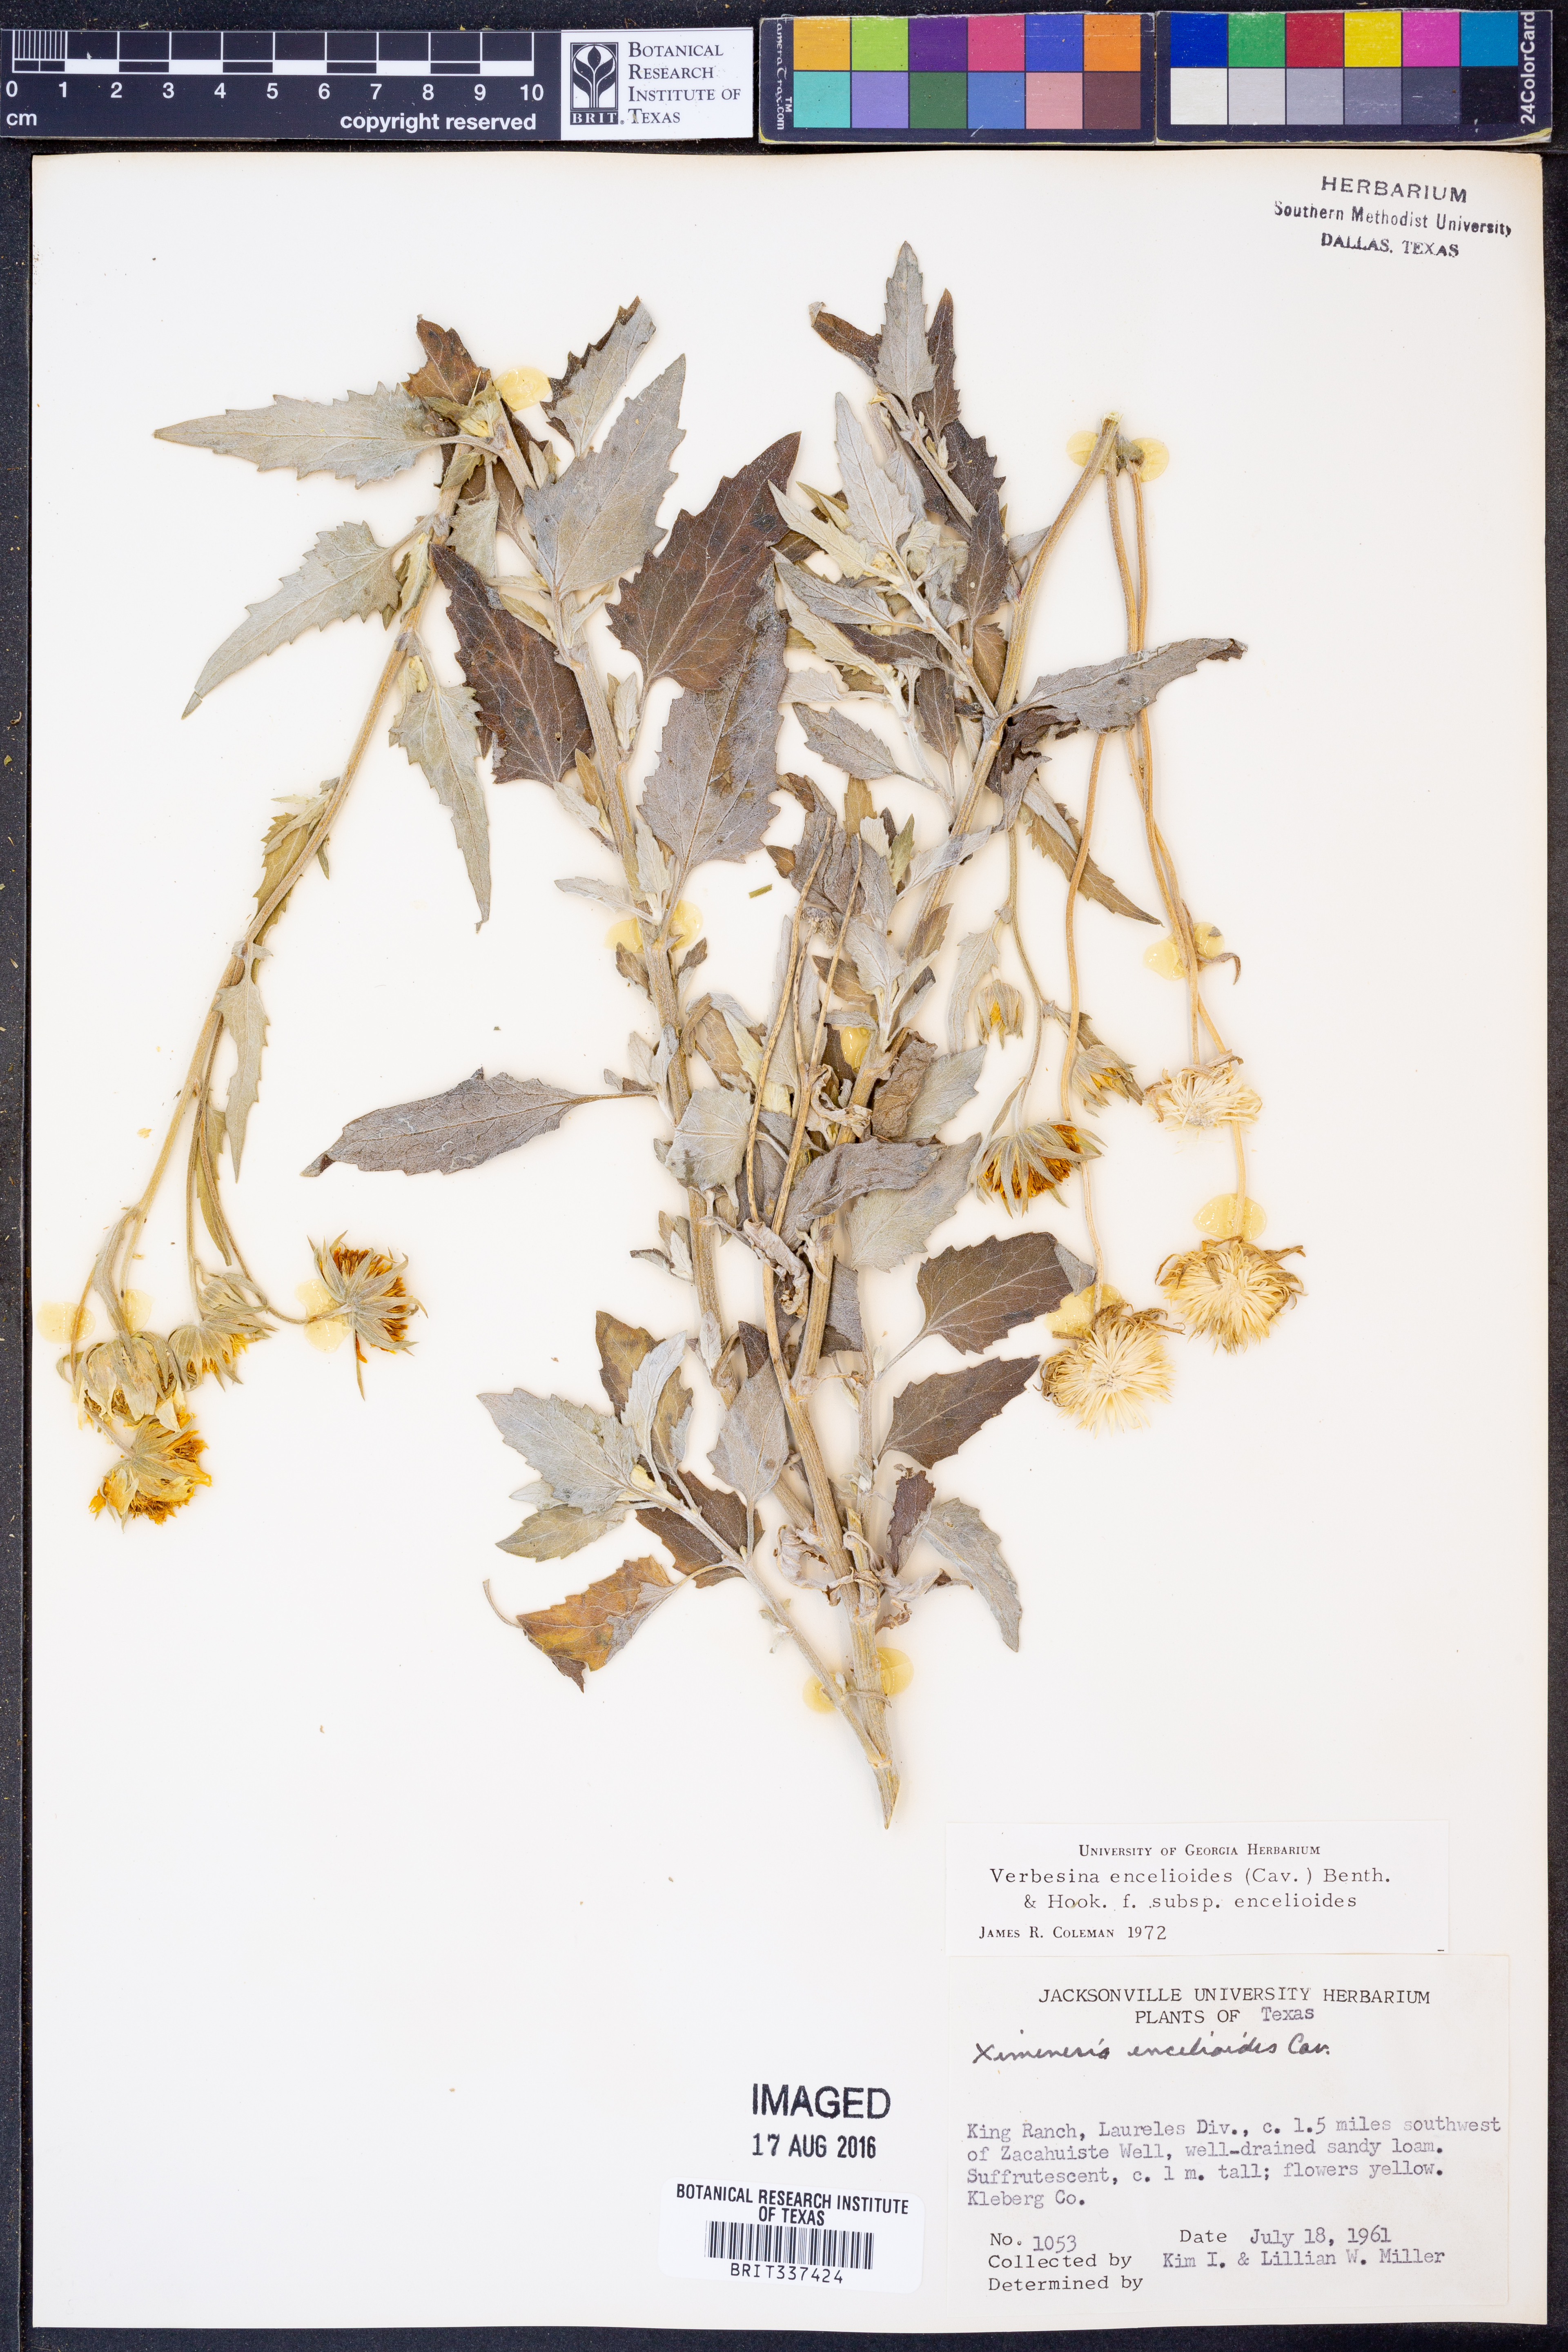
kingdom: Plantae
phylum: Tracheophyta
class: Magnoliopsida
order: Asterales
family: Asteraceae
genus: Verbesina
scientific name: Verbesina encelioides
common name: Golden crownbeard
